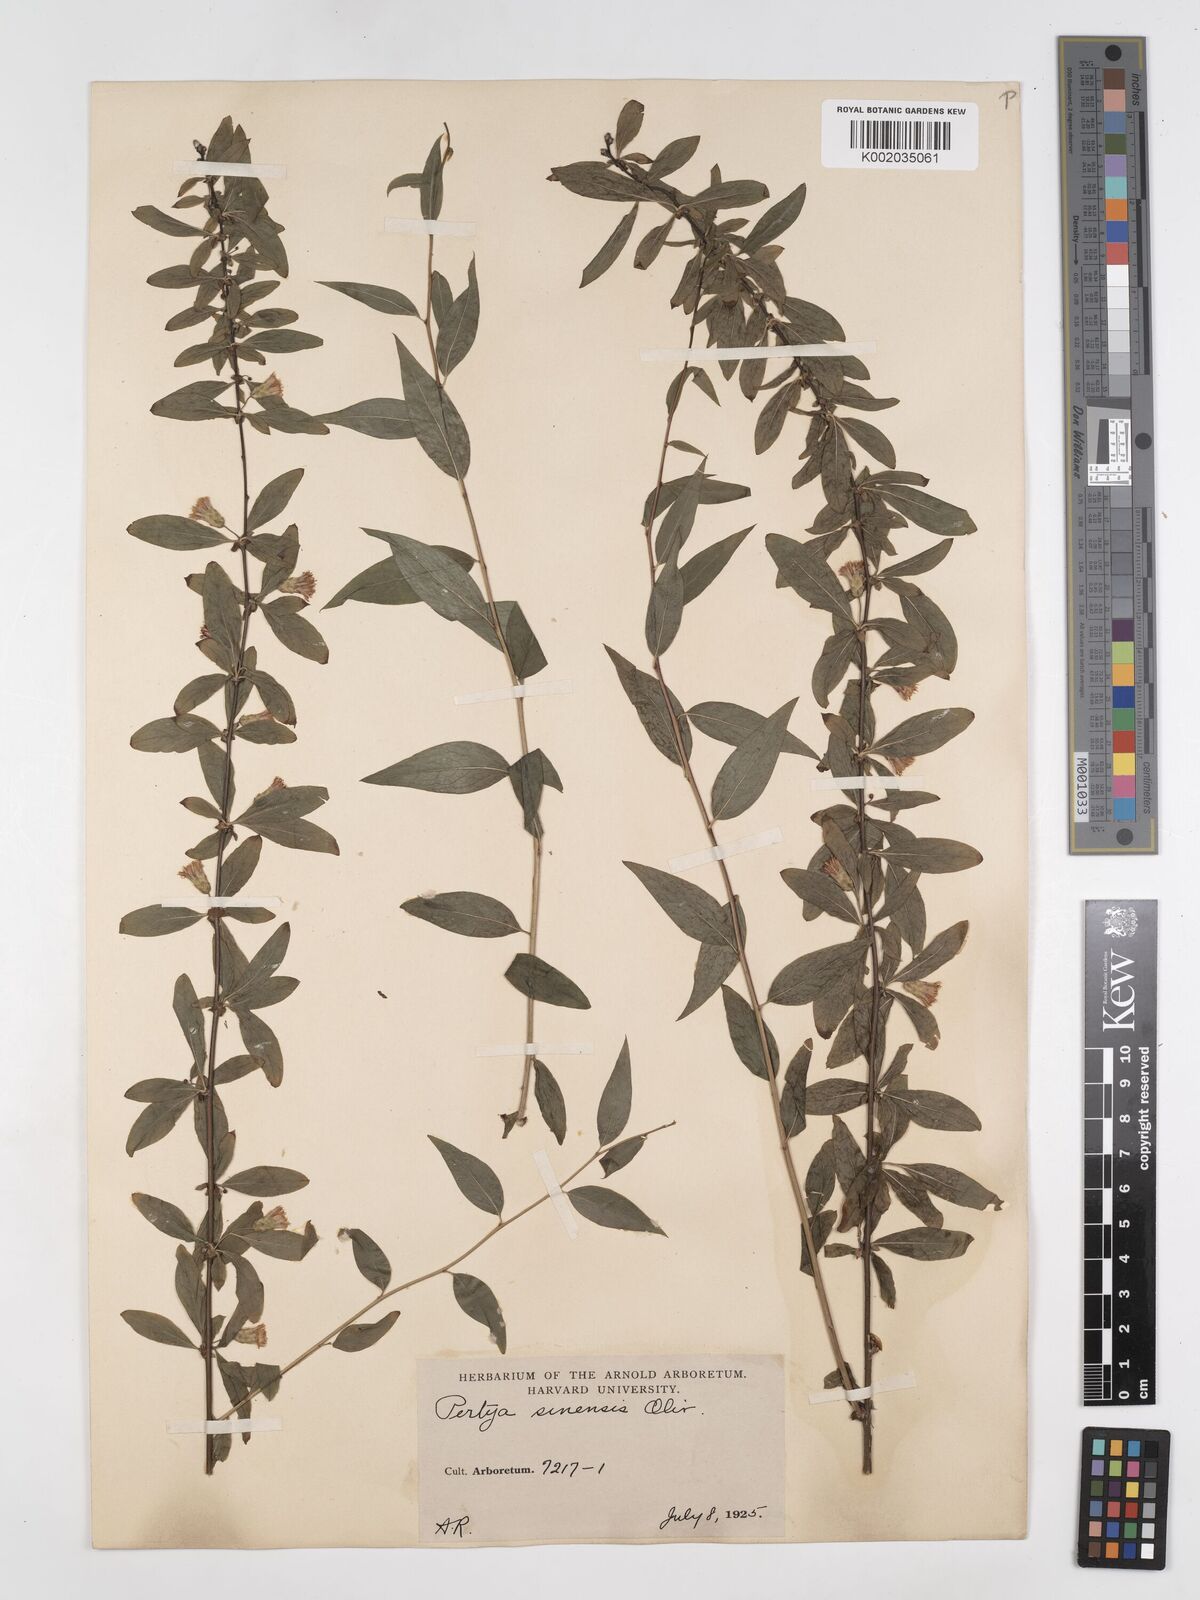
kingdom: Plantae
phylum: Tracheophyta
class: Magnoliopsida
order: Asterales
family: Asteraceae
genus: Pertya
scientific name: Pertya sinensis
